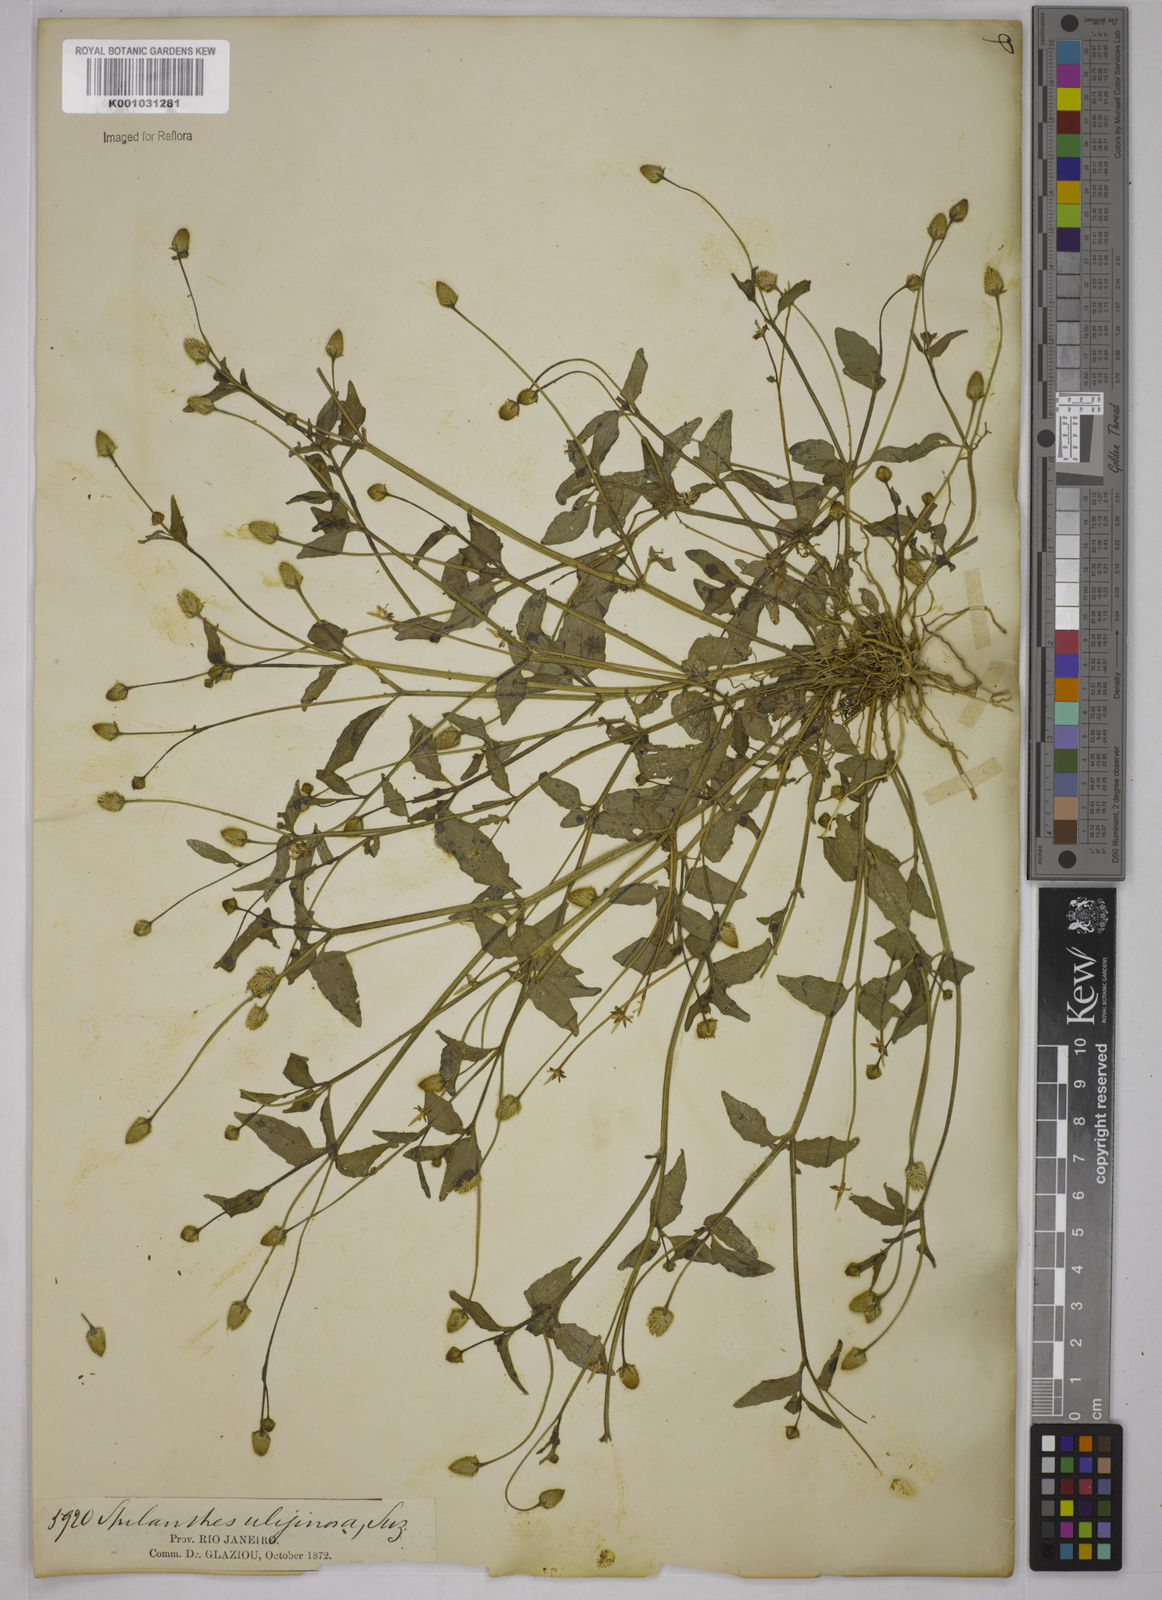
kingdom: Plantae
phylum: Tracheophyta
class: Magnoliopsida
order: Asterales
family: Asteraceae
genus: Acmella
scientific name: Acmella uliginosa
